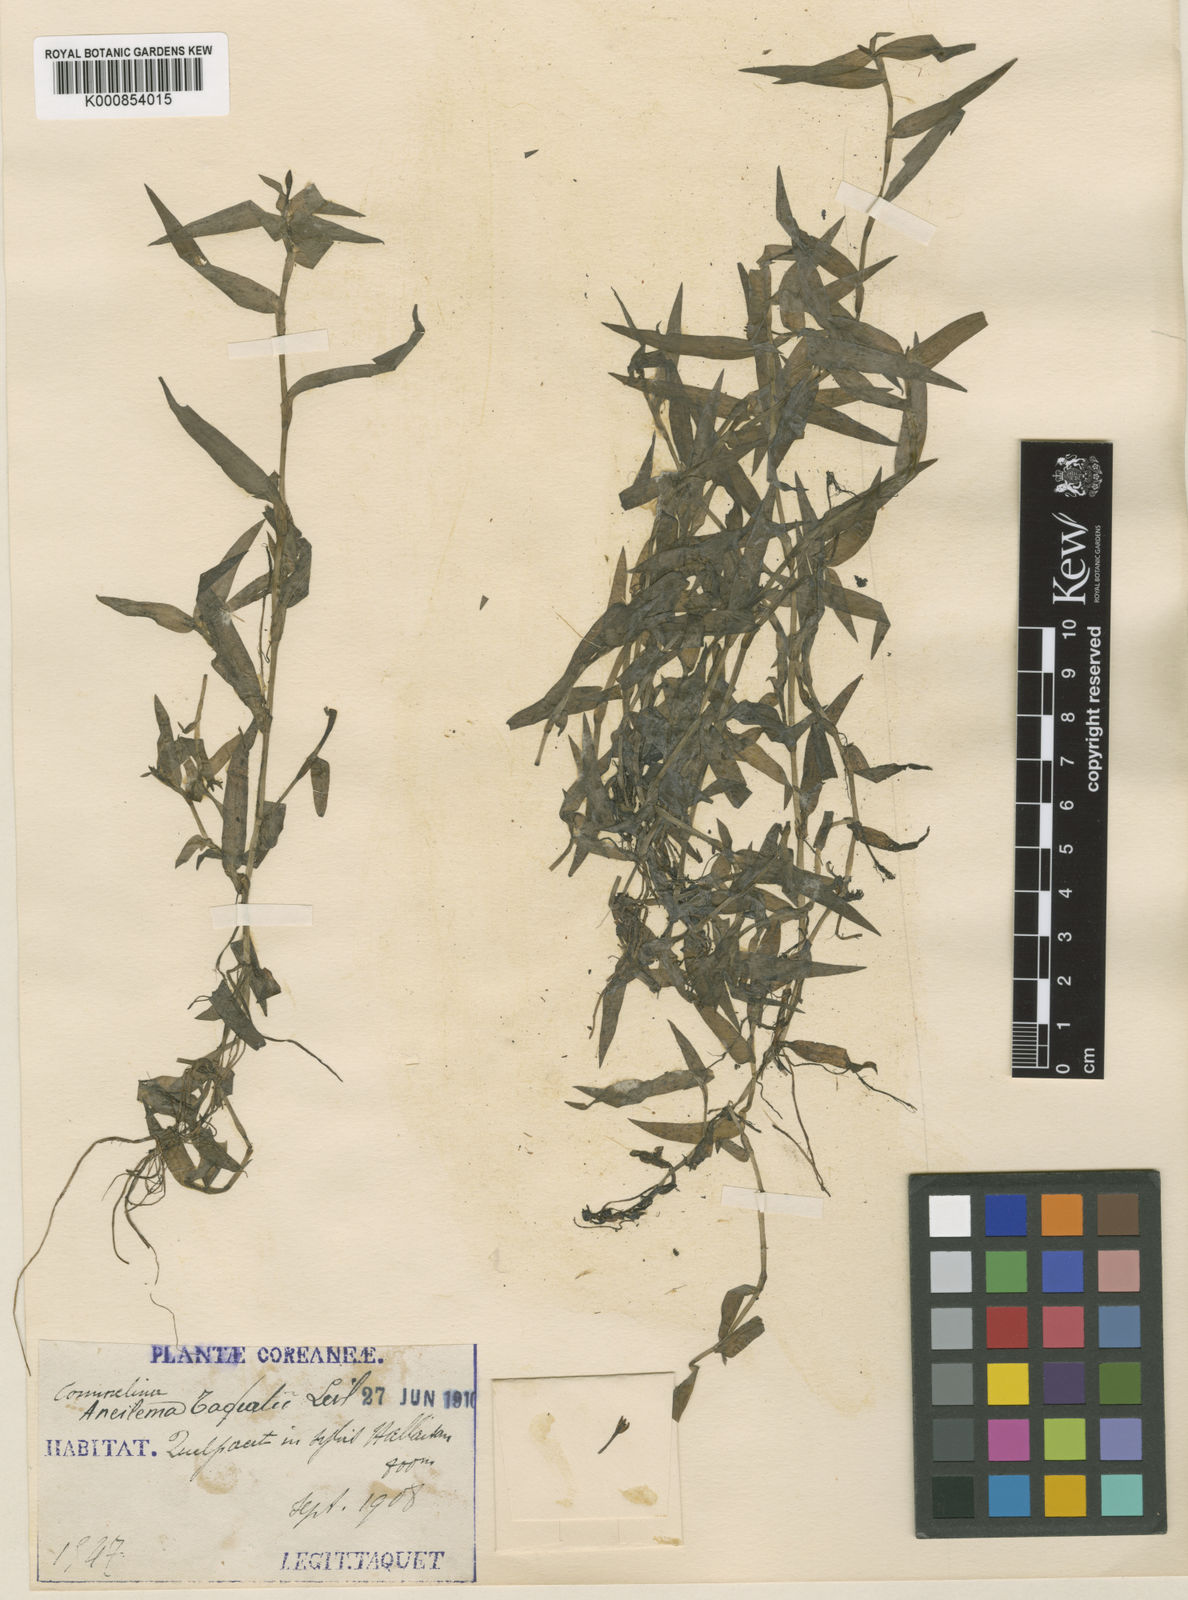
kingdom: Plantae
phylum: Tracheophyta
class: Liliopsida
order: Commelinales
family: Commelinaceae
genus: Murdannia
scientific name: Murdannia
